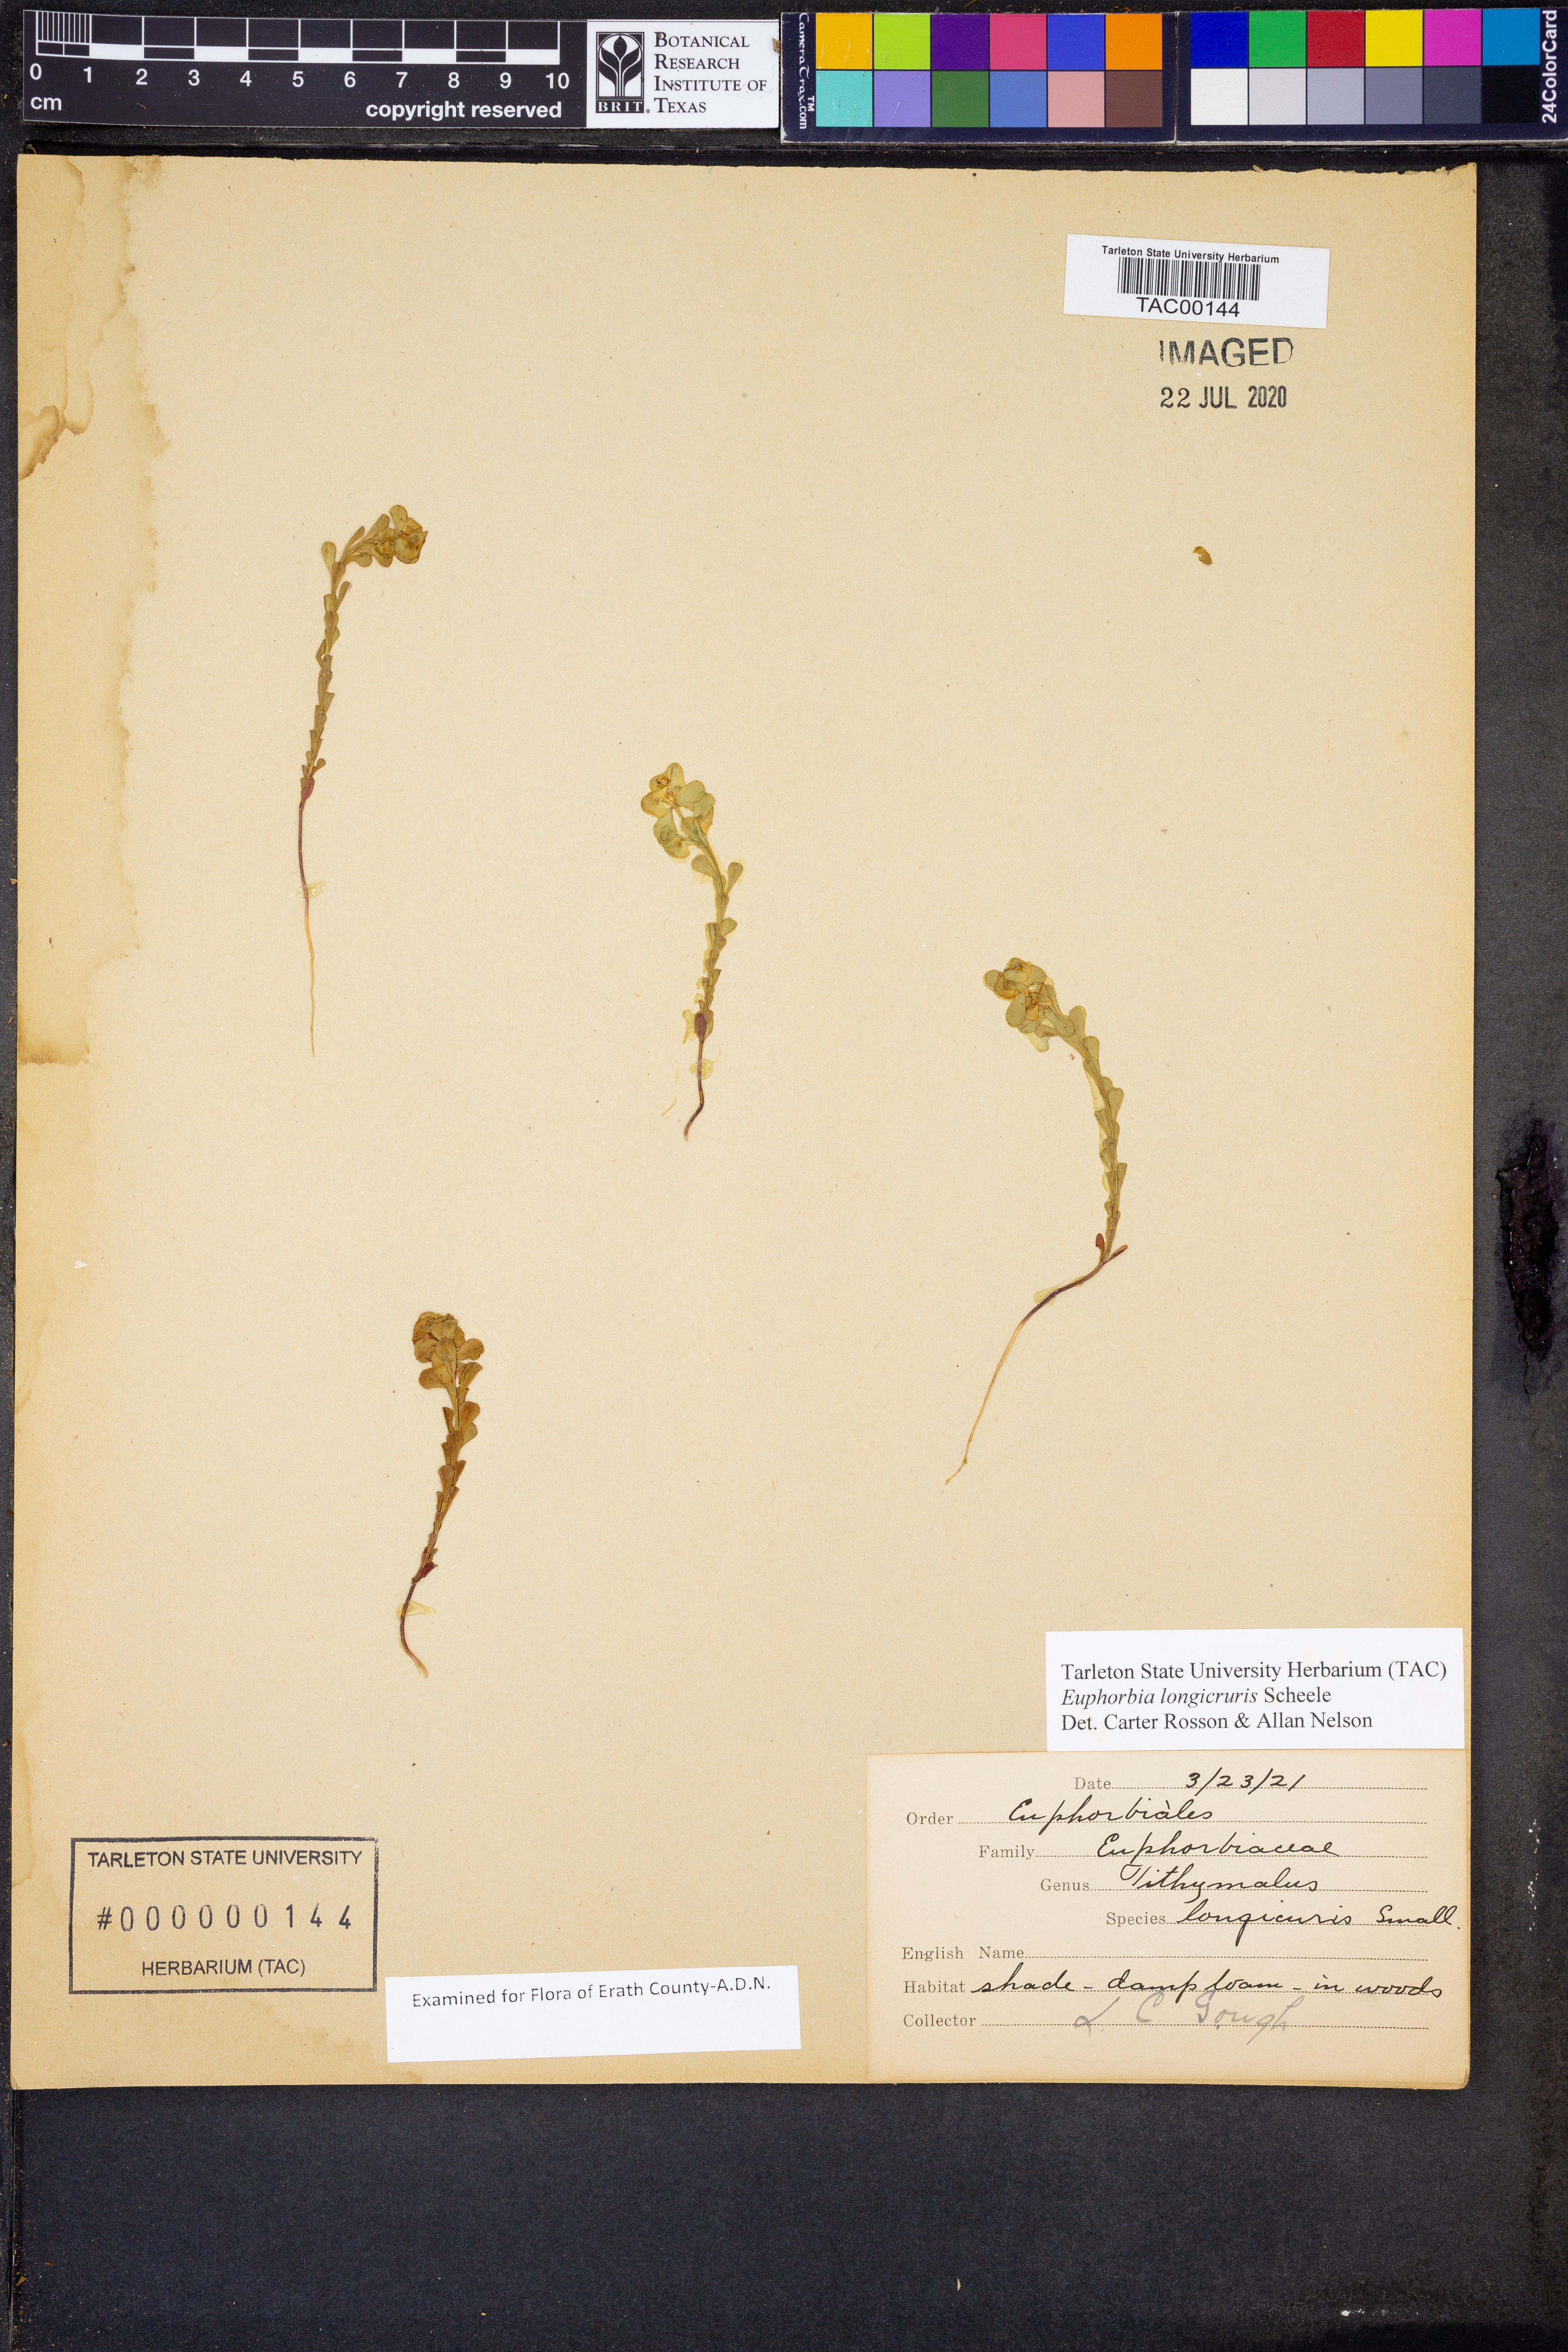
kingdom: Plantae
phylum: Tracheophyta
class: Magnoliopsida
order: Malpighiales
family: Euphorbiaceae
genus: Euphorbia
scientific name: Euphorbia longicruris
